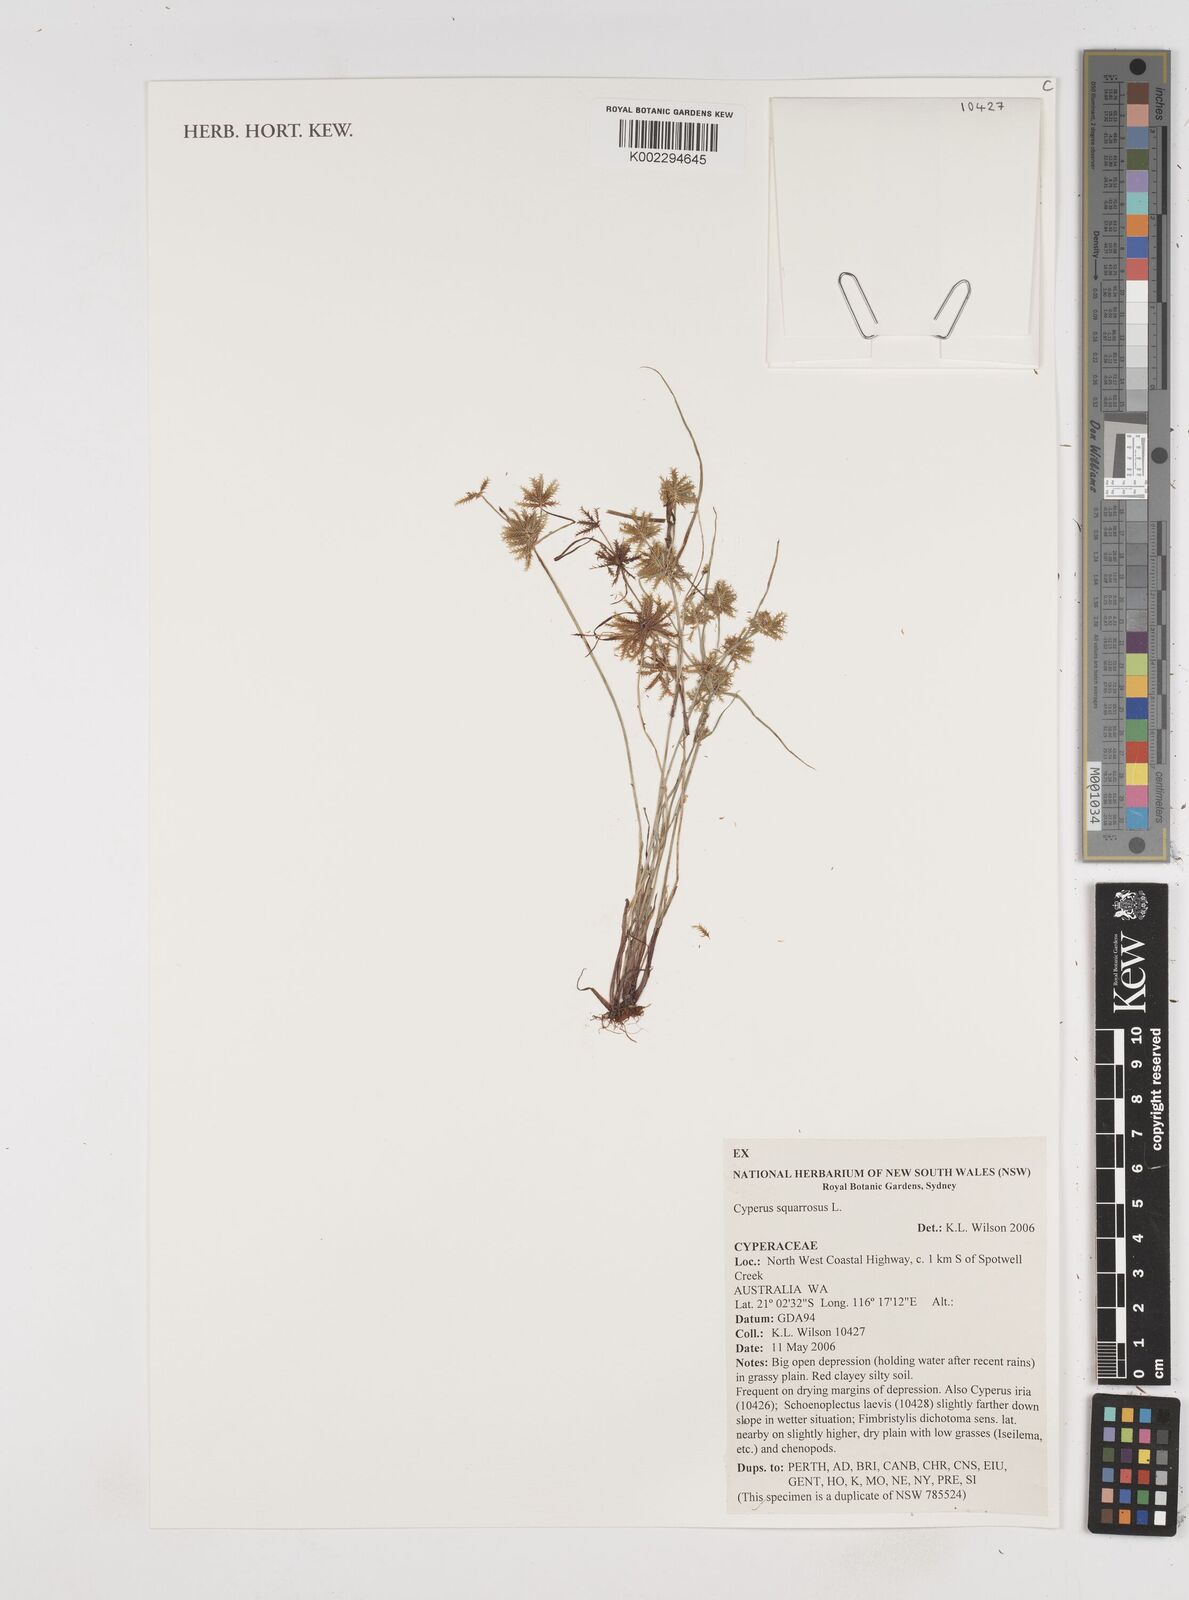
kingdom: Plantae
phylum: Tracheophyta
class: Liliopsida
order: Poales
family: Cyperaceae
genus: Cyperus
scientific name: Cyperus squarrosus
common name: Awned cyperus
